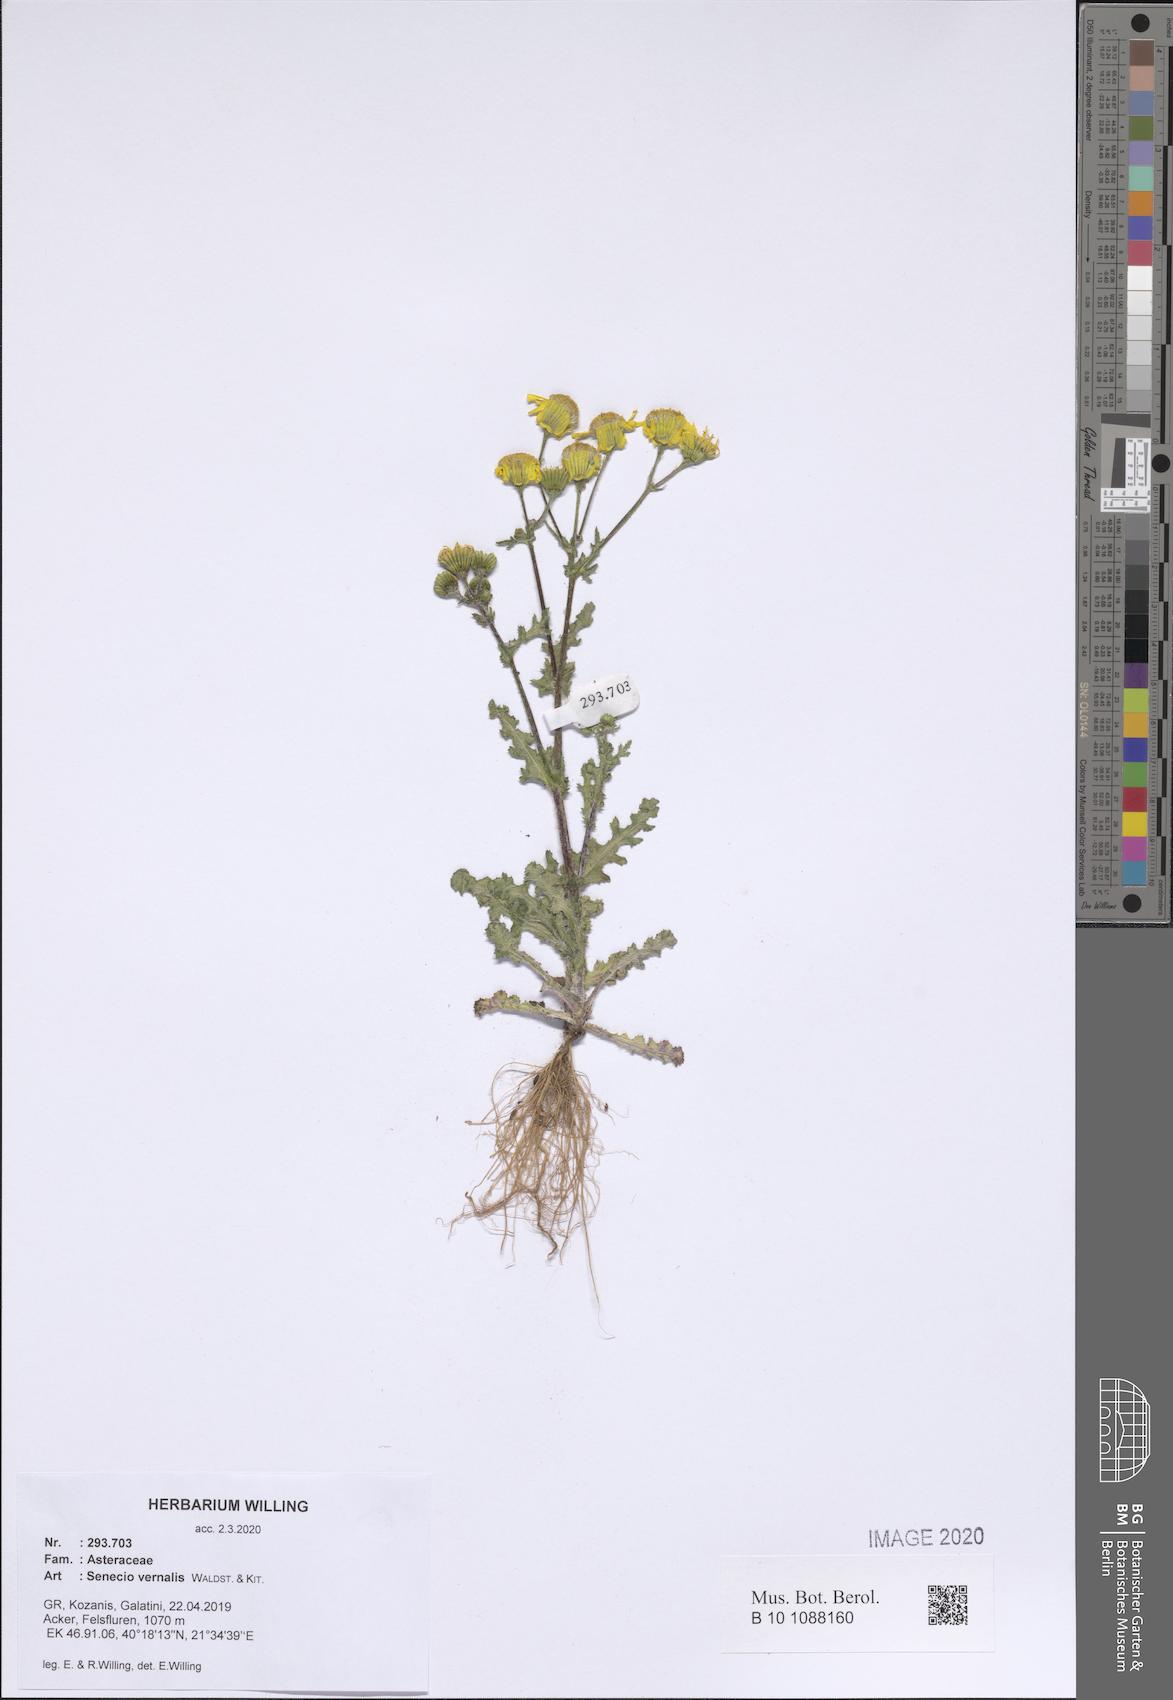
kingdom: Plantae
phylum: Tracheophyta
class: Magnoliopsida
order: Asterales
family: Asteraceae
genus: Senecio
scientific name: Senecio vernalis
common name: Eastern groundsel
